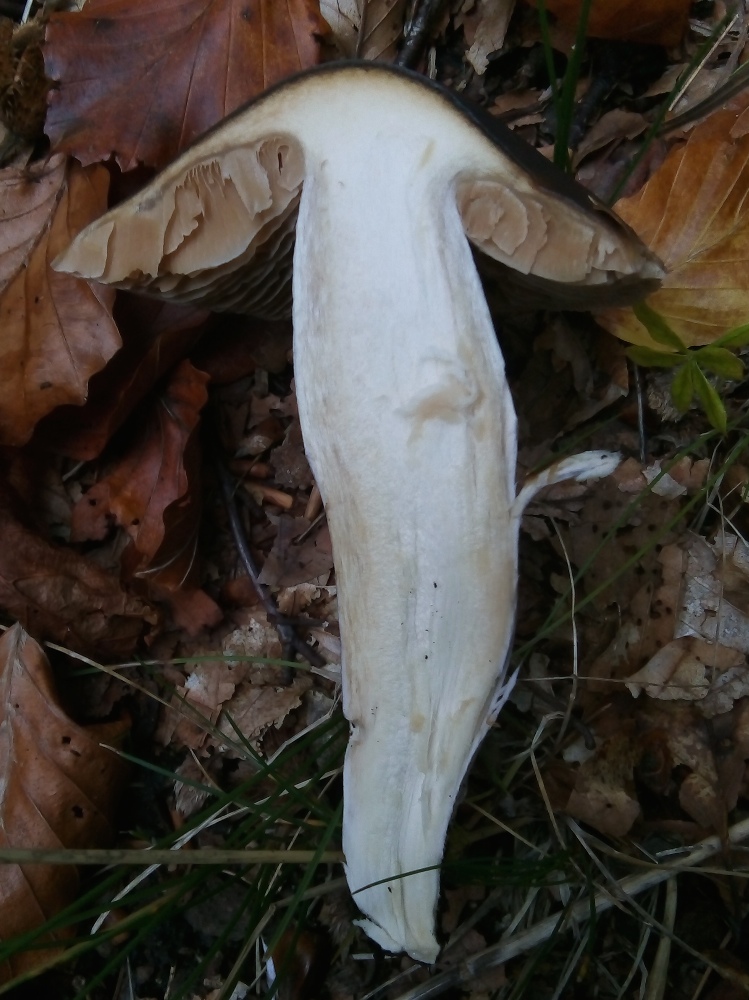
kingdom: Fungi
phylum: Basidiomycota
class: Agaricomycetes
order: Agaricales
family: Cortinariaceae
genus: Cortinarius
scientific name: Cortinarius elatior
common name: høj slørhat
